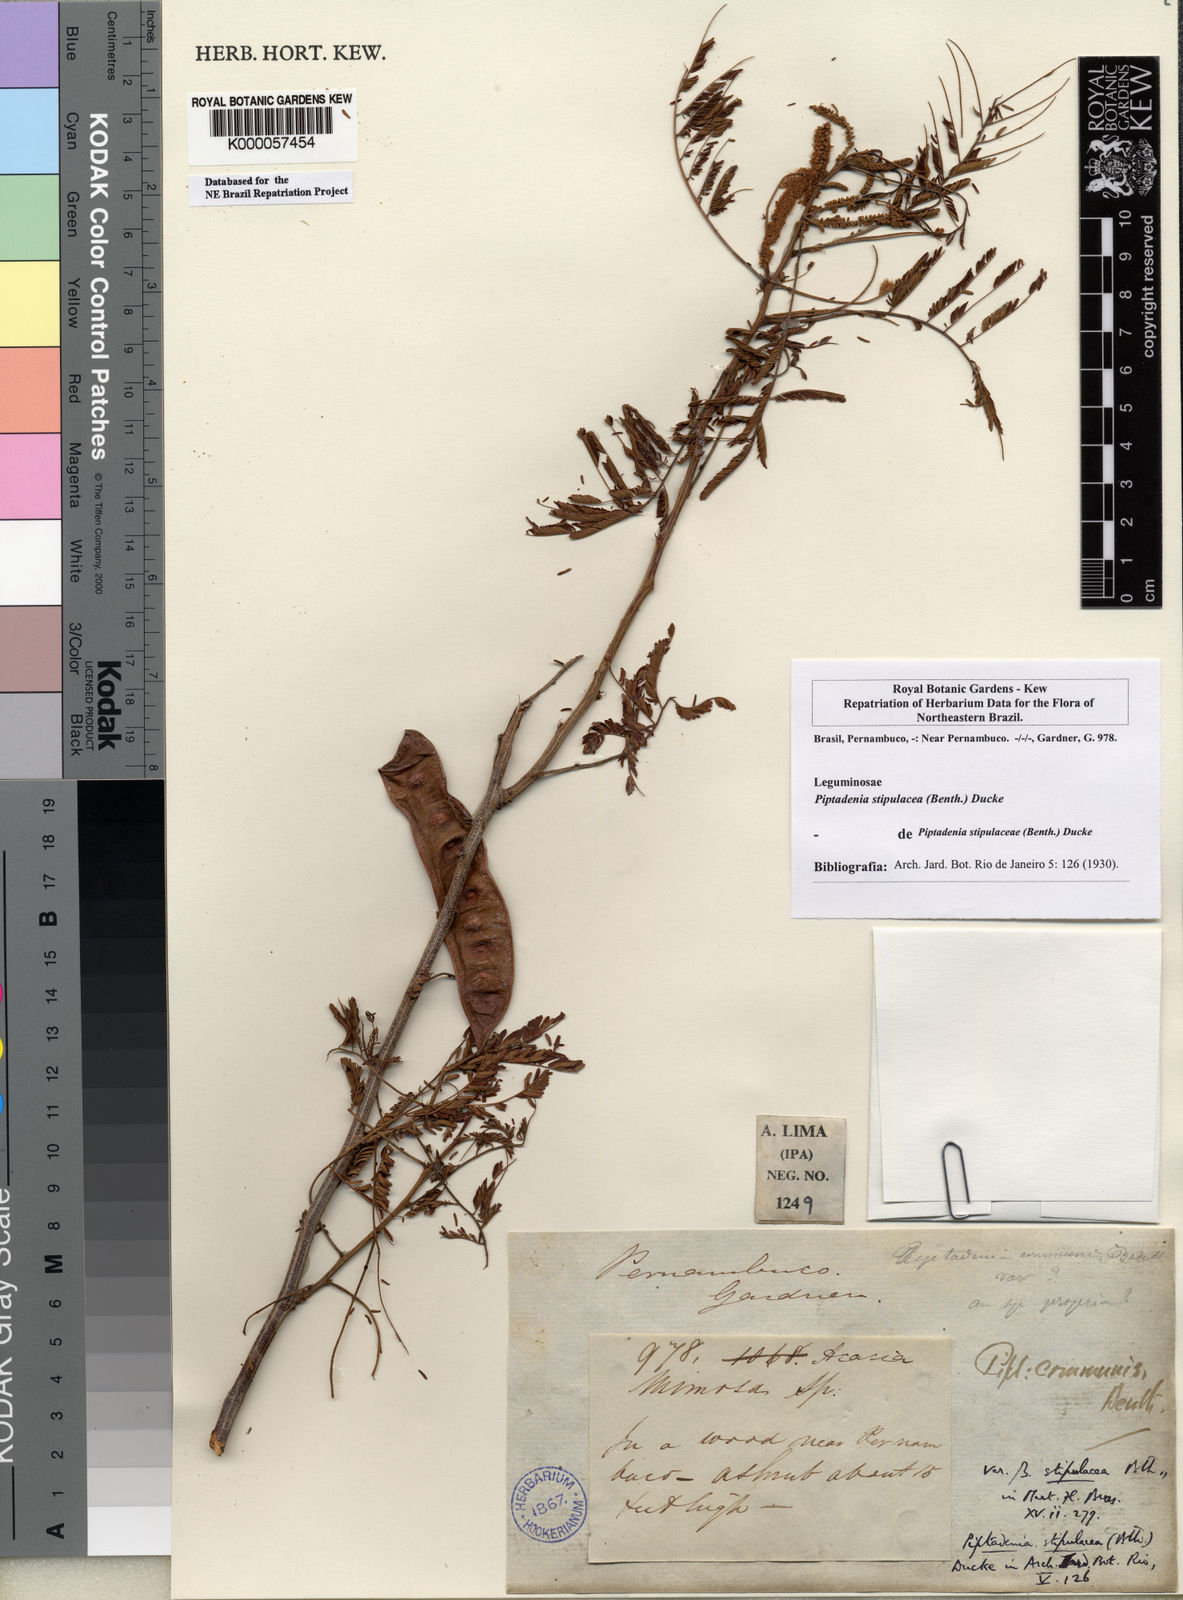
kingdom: Plantae
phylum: Tracheophyta
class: Magnoliopsida
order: Fabales
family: Fabaceae
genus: Piptadenia
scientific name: Piptadenia retusa
